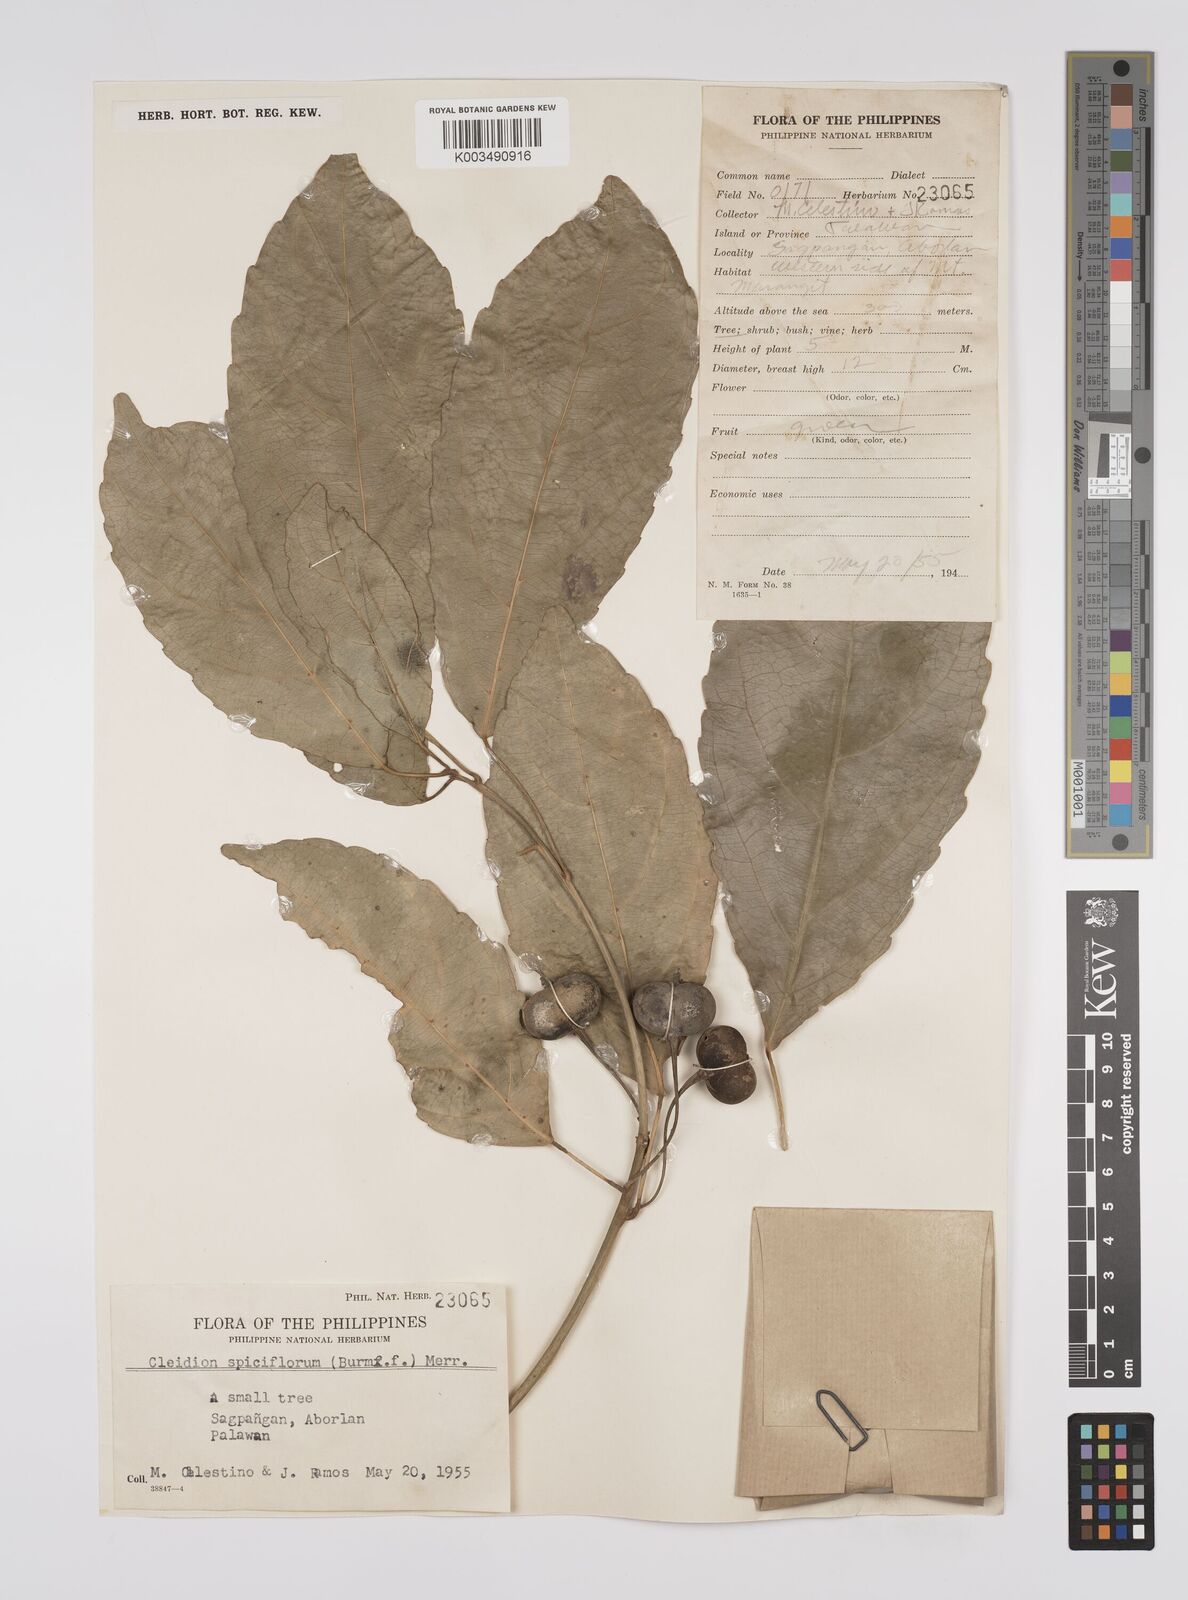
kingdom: Plantae
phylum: Tracheophyta
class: Magnoliopsida
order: Malpighiales
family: Euphorbiaceae
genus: Cleidion
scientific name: Cleidion javanicum
